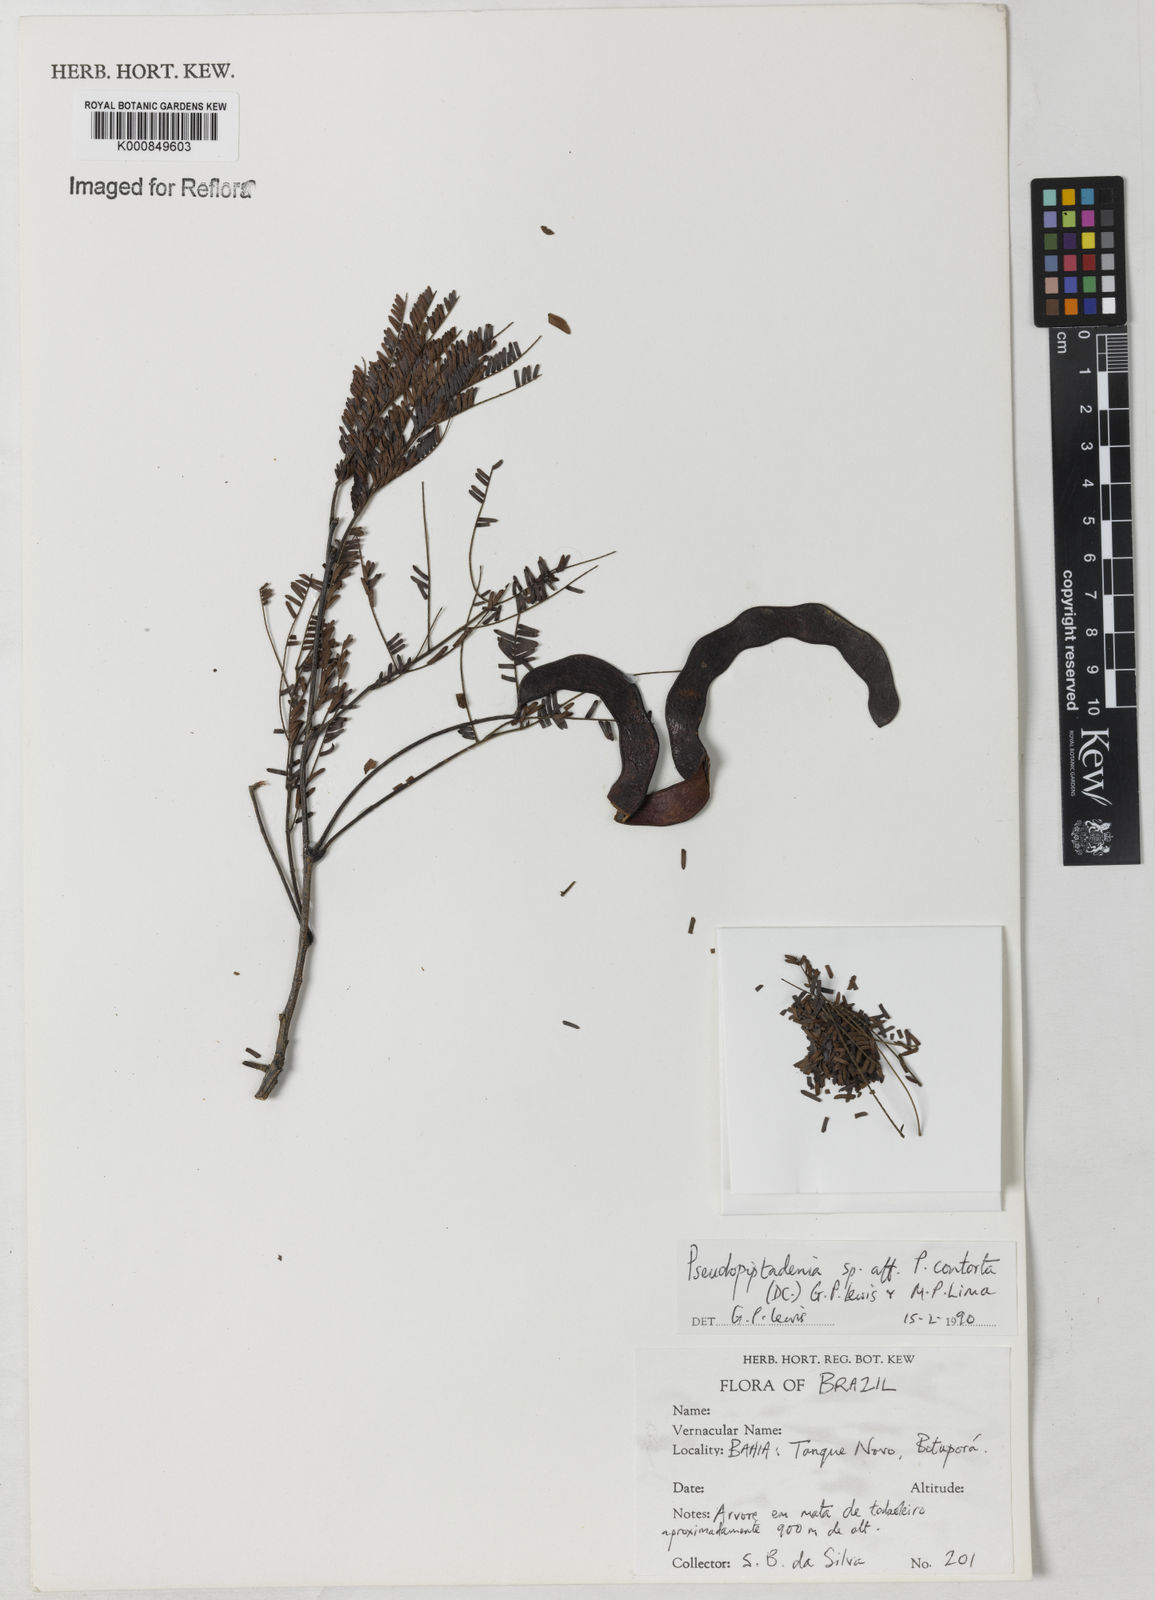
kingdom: Plantae
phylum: Tracheophyta
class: Magnoliopsida
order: Fabales
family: Fabaceae
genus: Pseudopiptadenia
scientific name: Pseudopiptadenia
